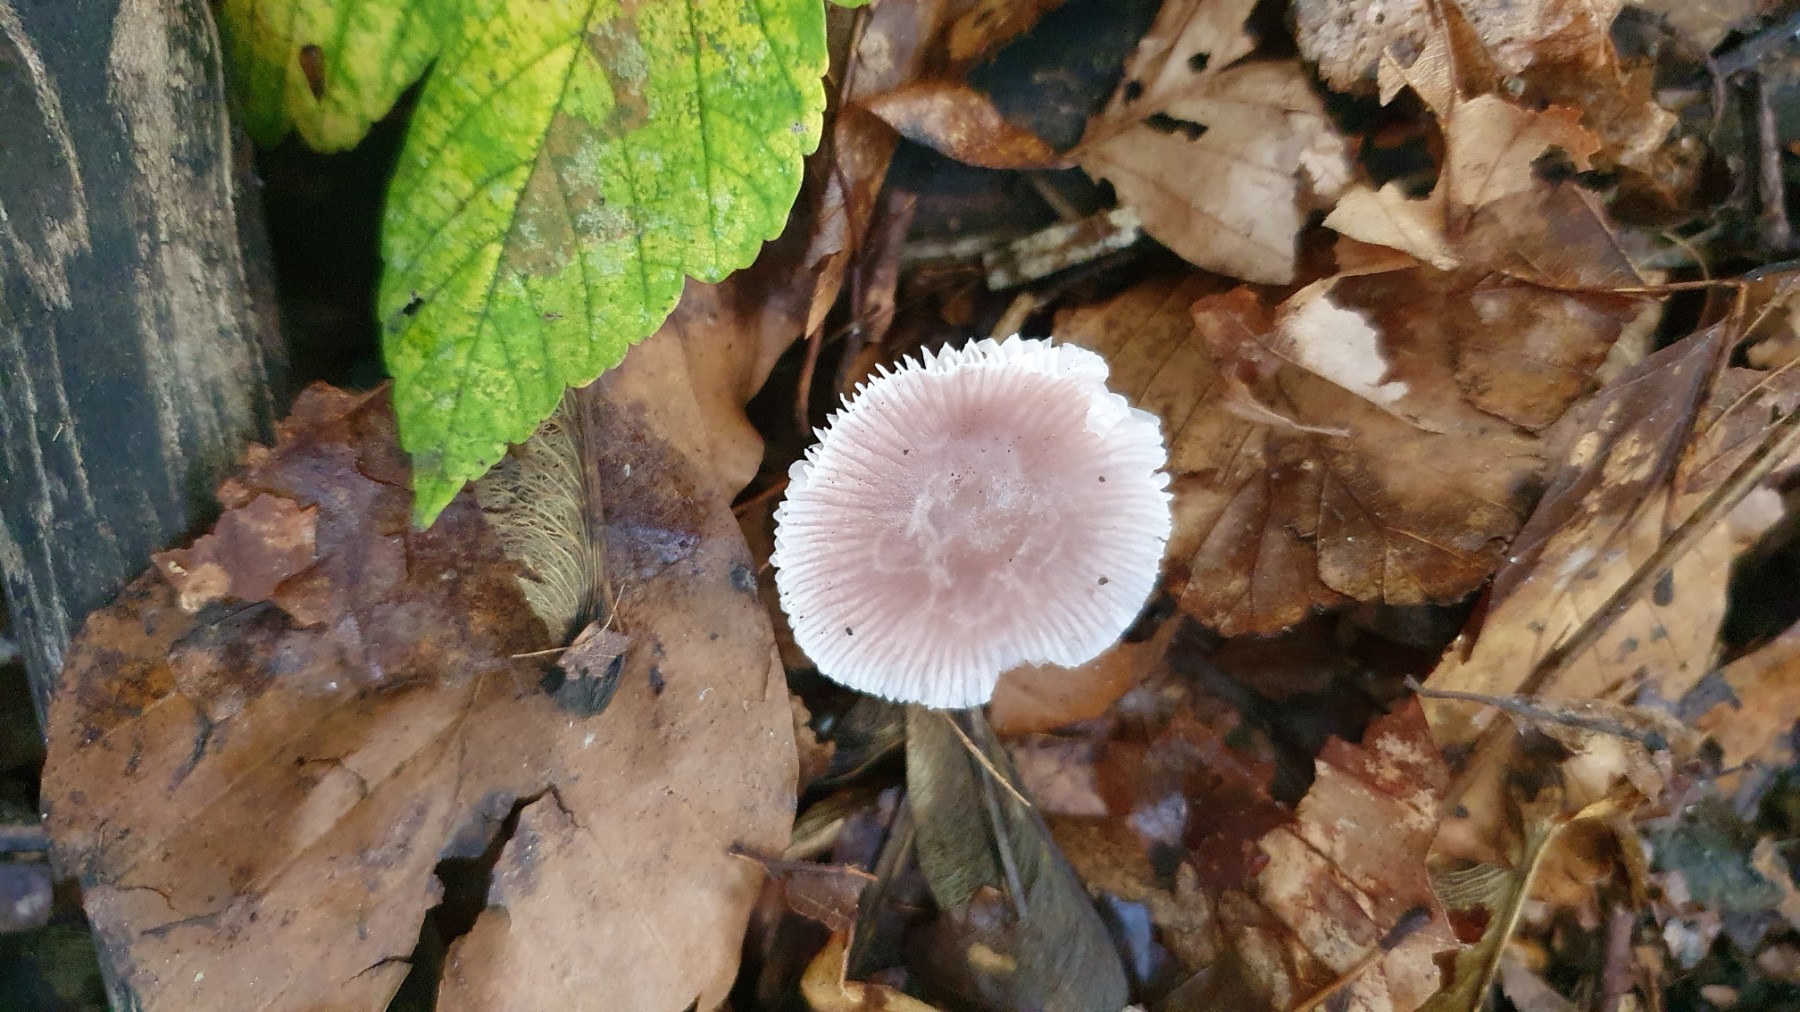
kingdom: Fungi
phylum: Basidiomycota
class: Agaricomycetes
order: Agaricales
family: Mycenaceae
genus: Mycena
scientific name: Mycena rosea
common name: rosa huesvamp
